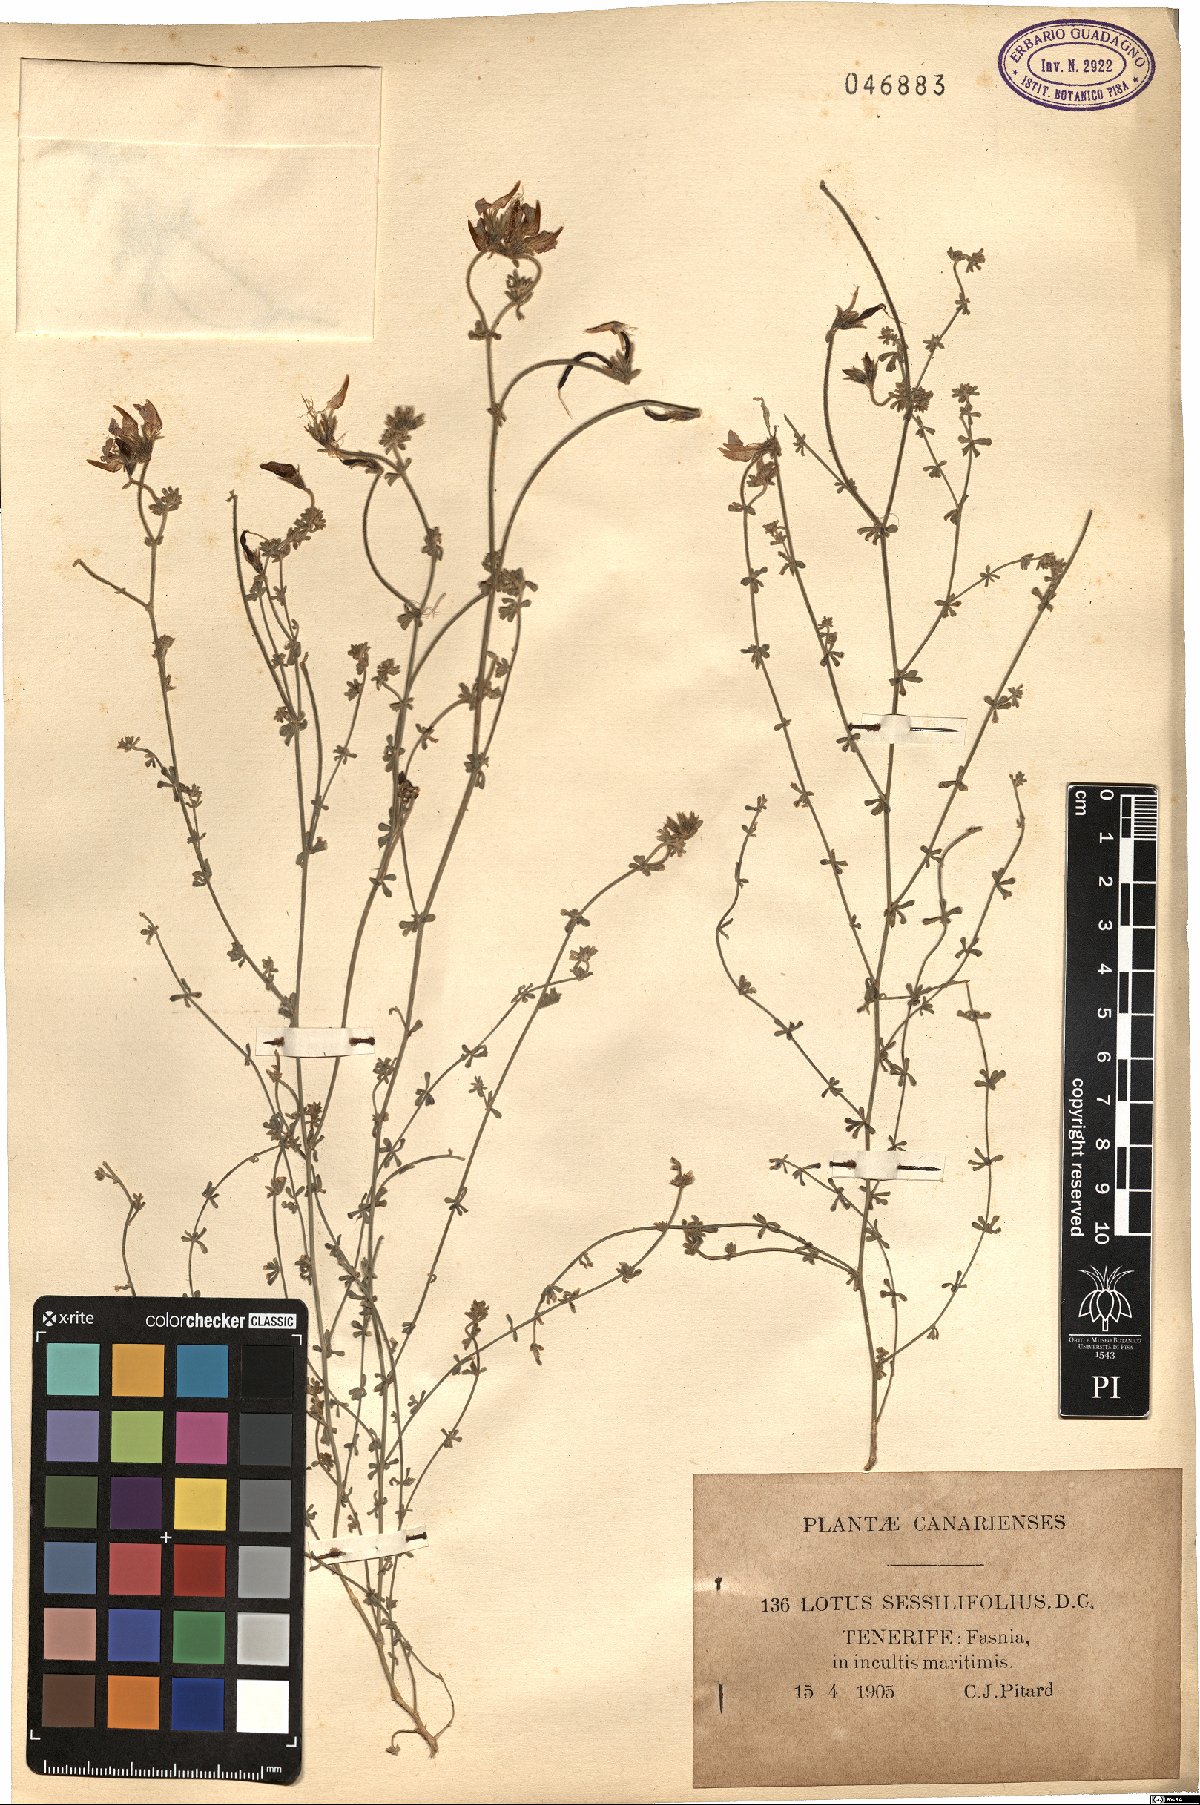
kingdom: Plantae
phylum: Tracheophyta
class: Magnoliopsida
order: Fabales
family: Fabaceae
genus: Lotus
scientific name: Lotus sessilifolius
